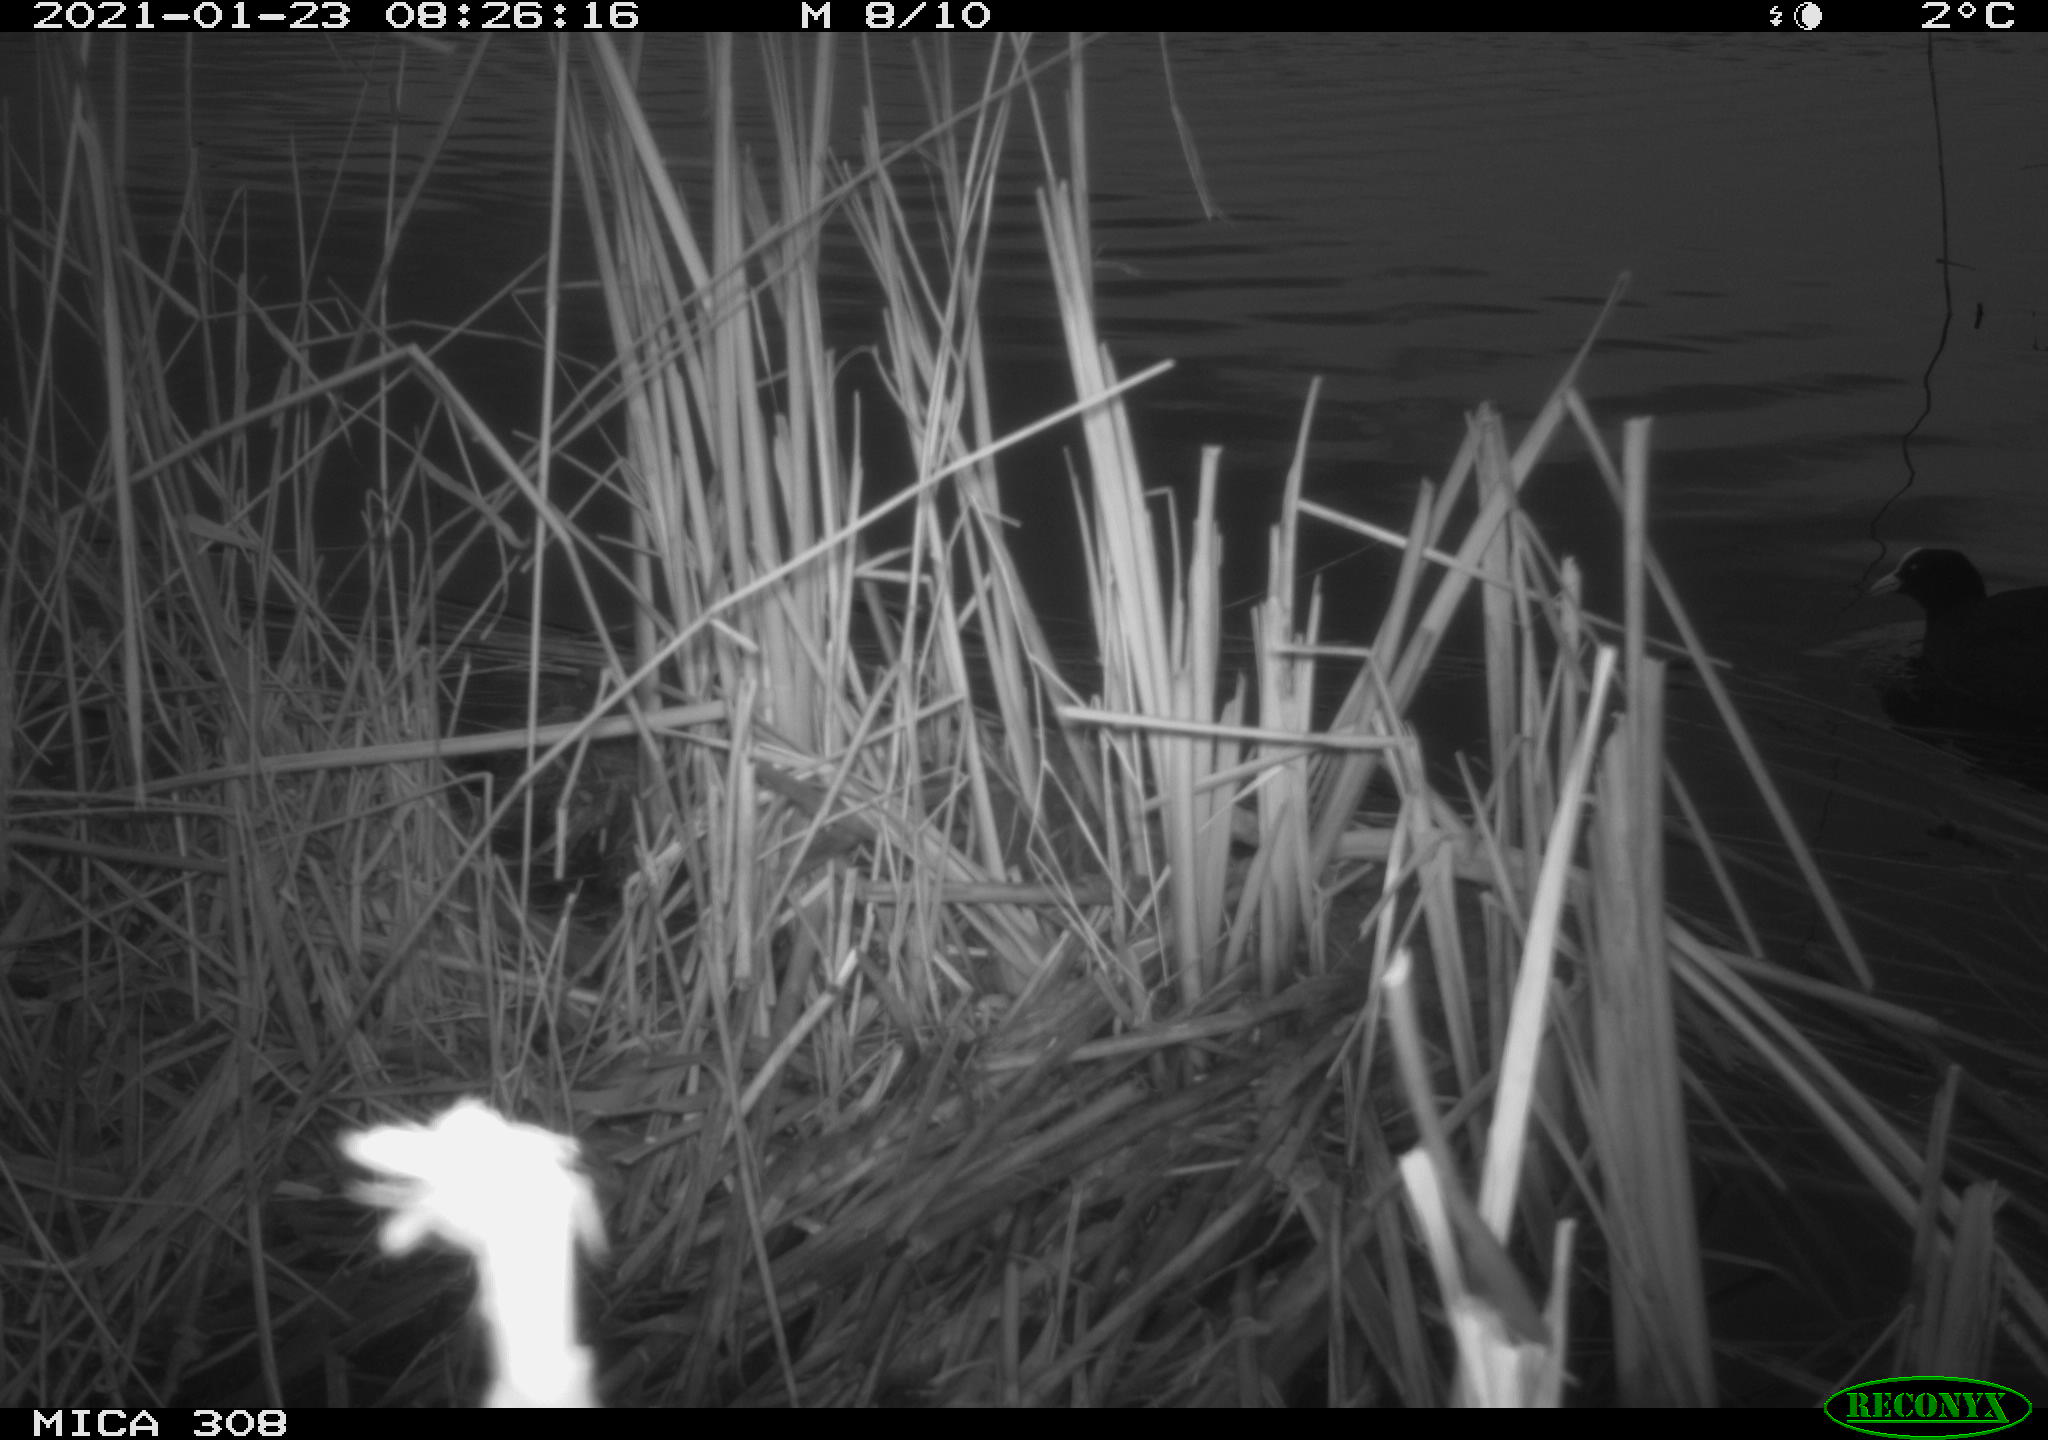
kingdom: Animalia
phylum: Chordata
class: Aves
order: Gruiformes
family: Rallidae
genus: Fulica
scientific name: Fulica atra
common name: Eurasian coot
